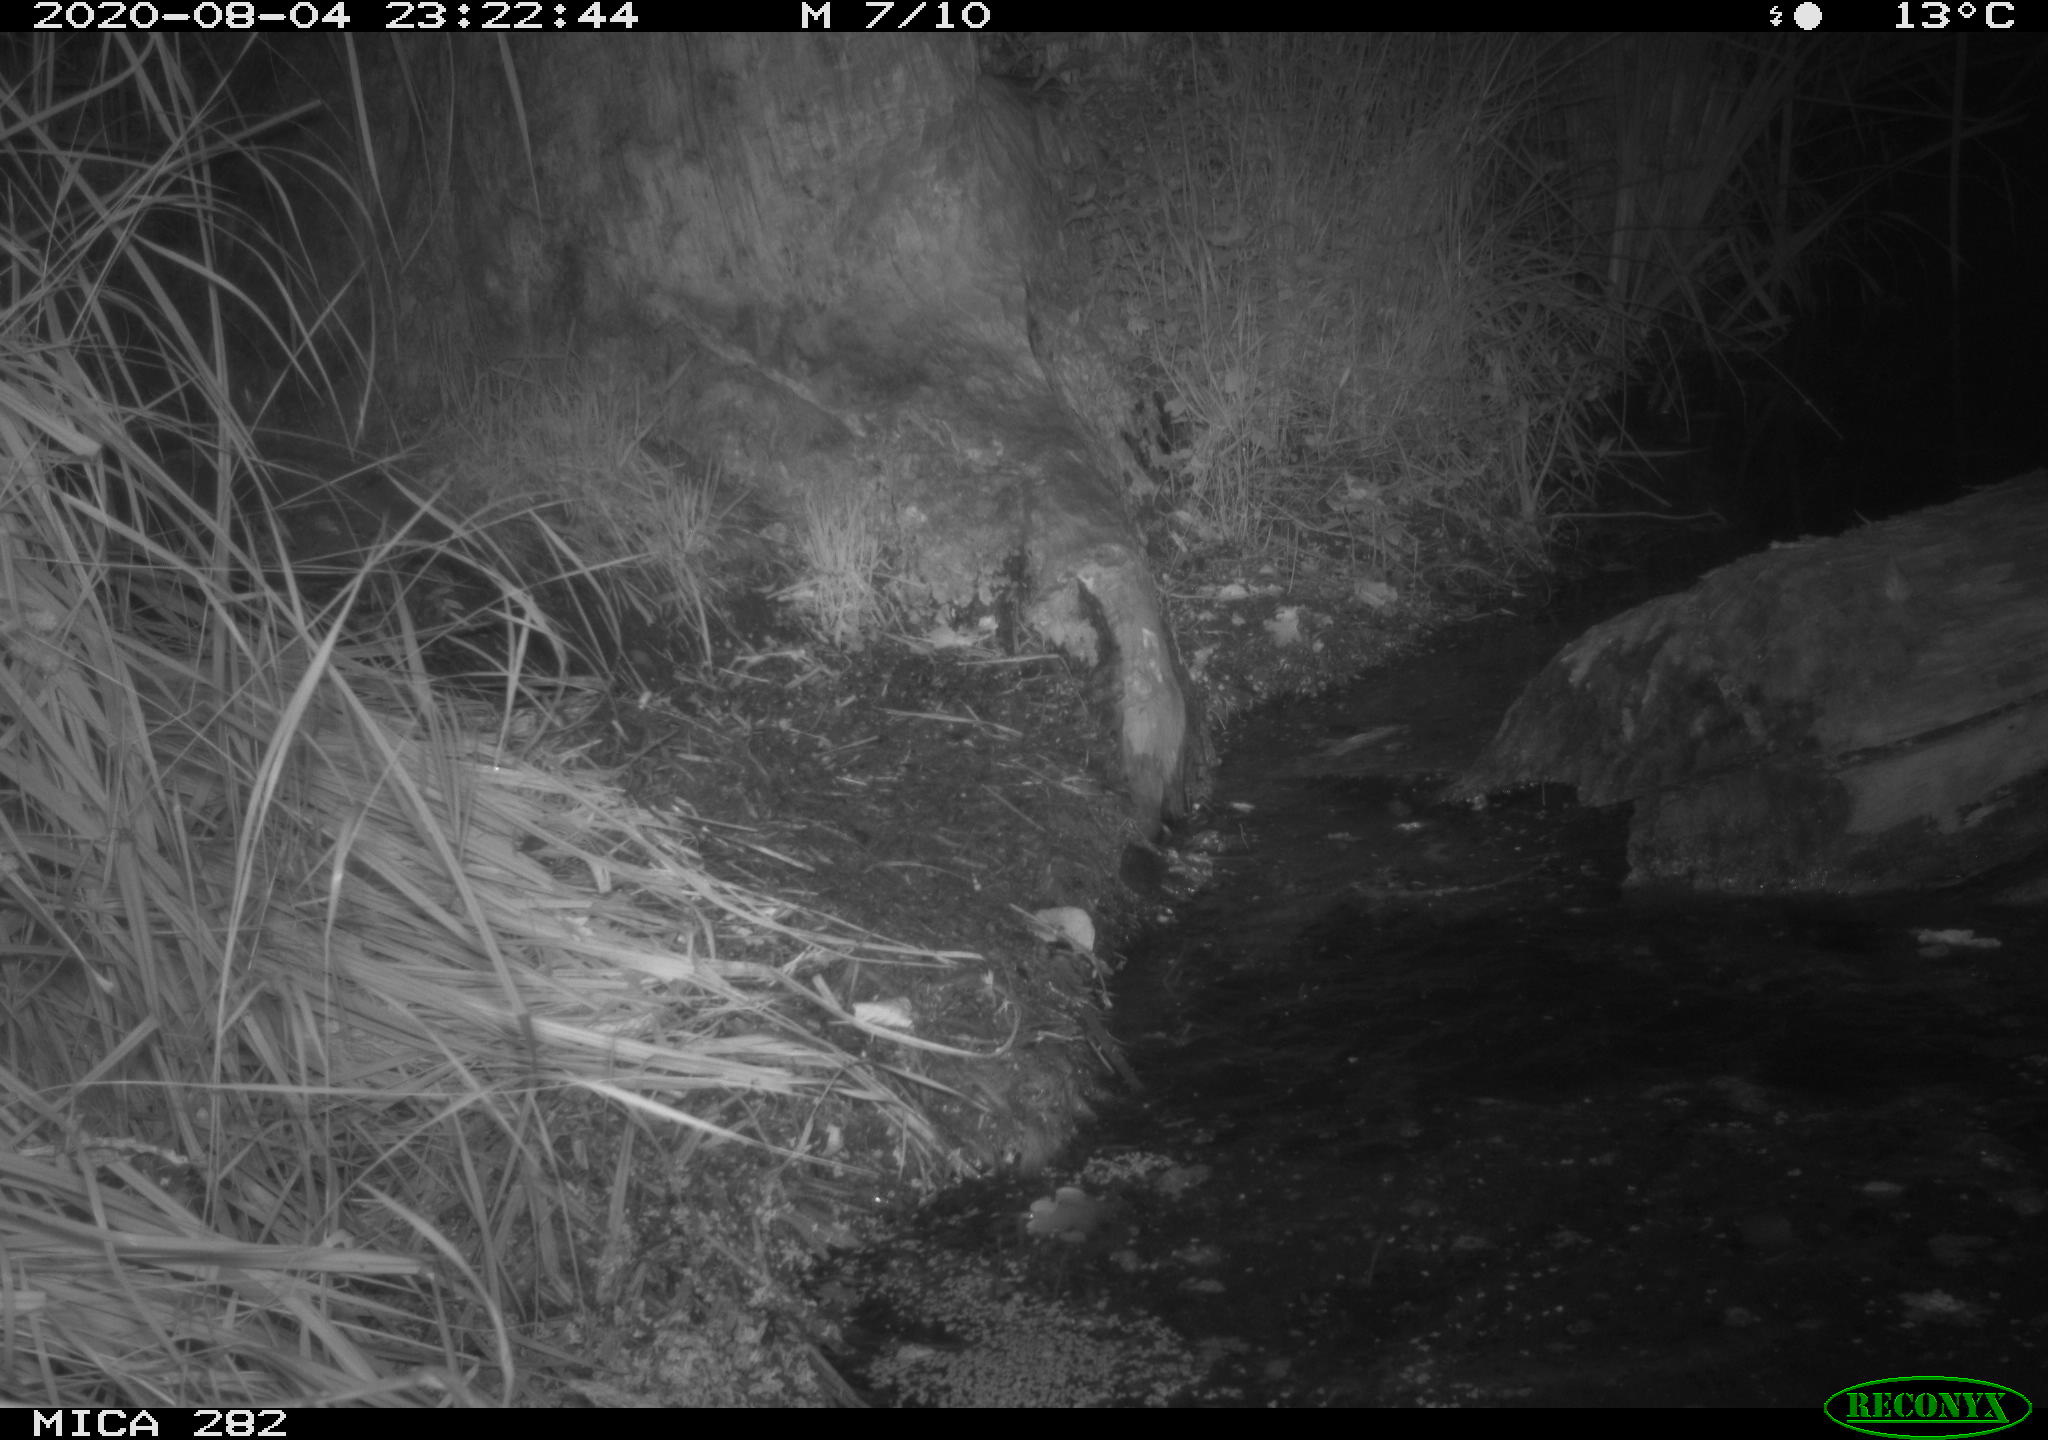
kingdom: Animalia
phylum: Chordata
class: Mammalia
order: Rodentia
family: Castoridae
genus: Castor
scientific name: Castor fiber
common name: Eurasian beaver
